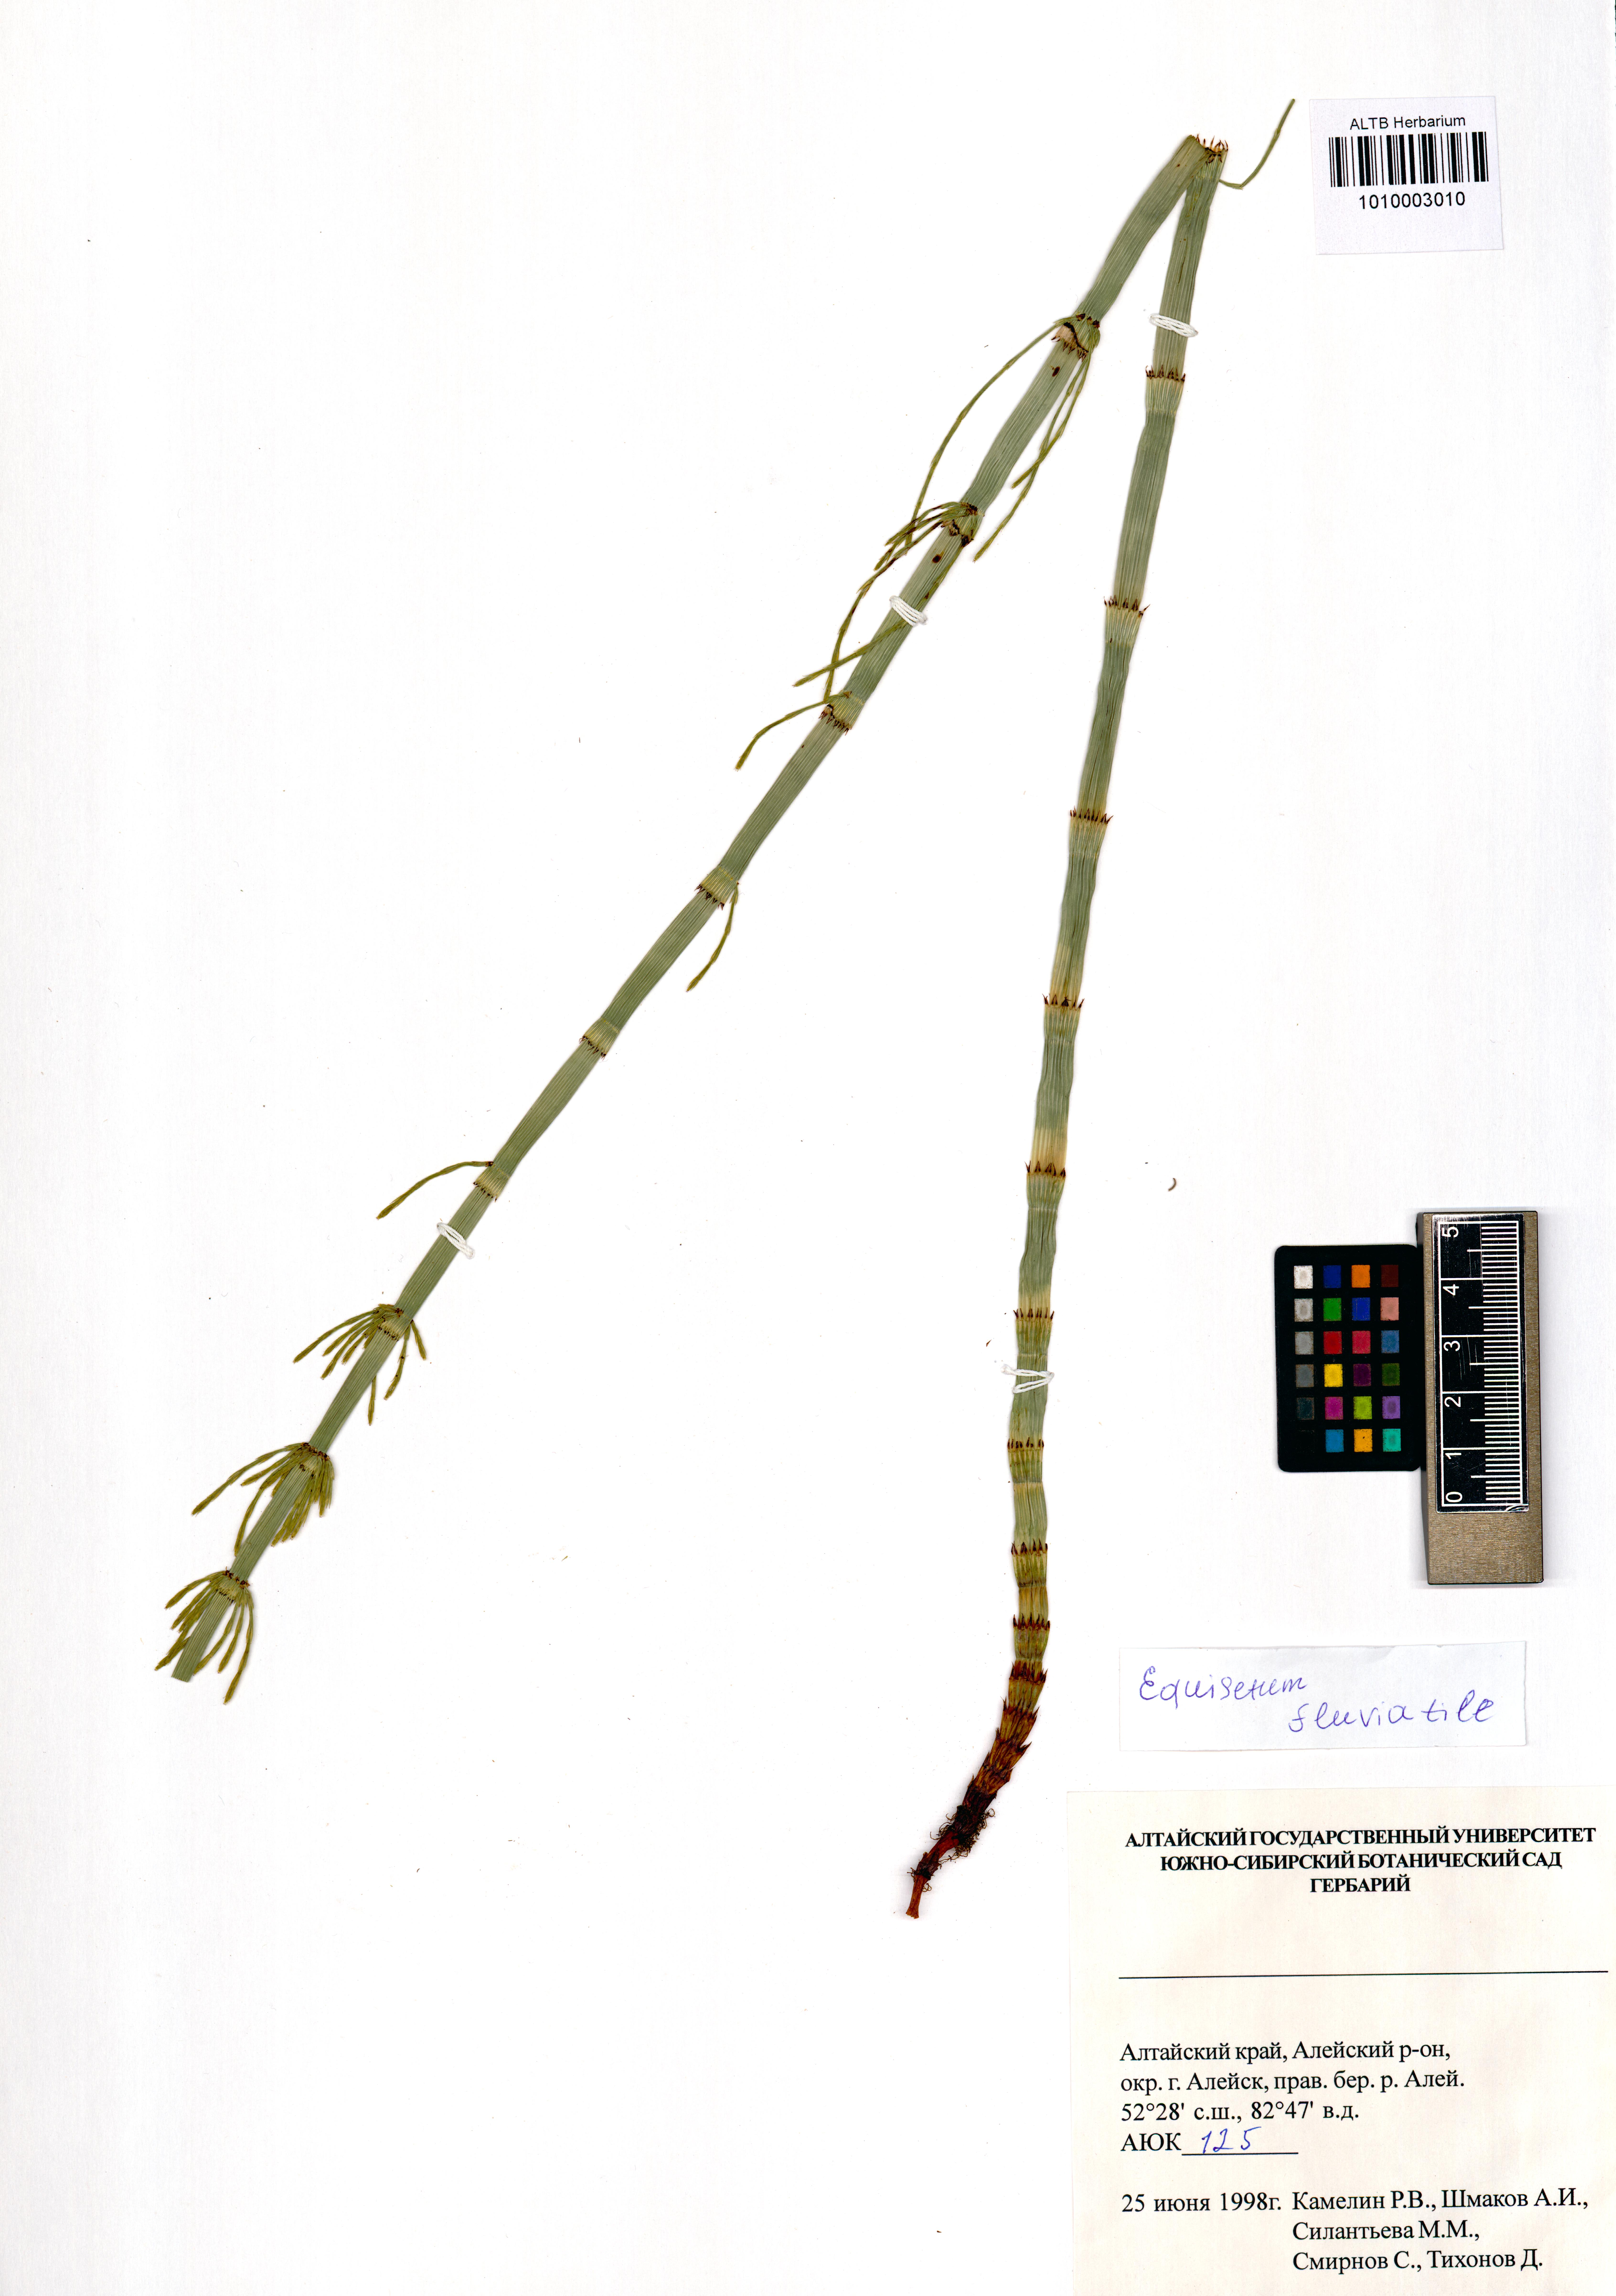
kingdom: Plantae
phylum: Tracheophyta
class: Polypodiopsida
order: Equisetales
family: Equisetaceae
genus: Equisetum
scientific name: Equisetum fluviatile
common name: Water horsetail
